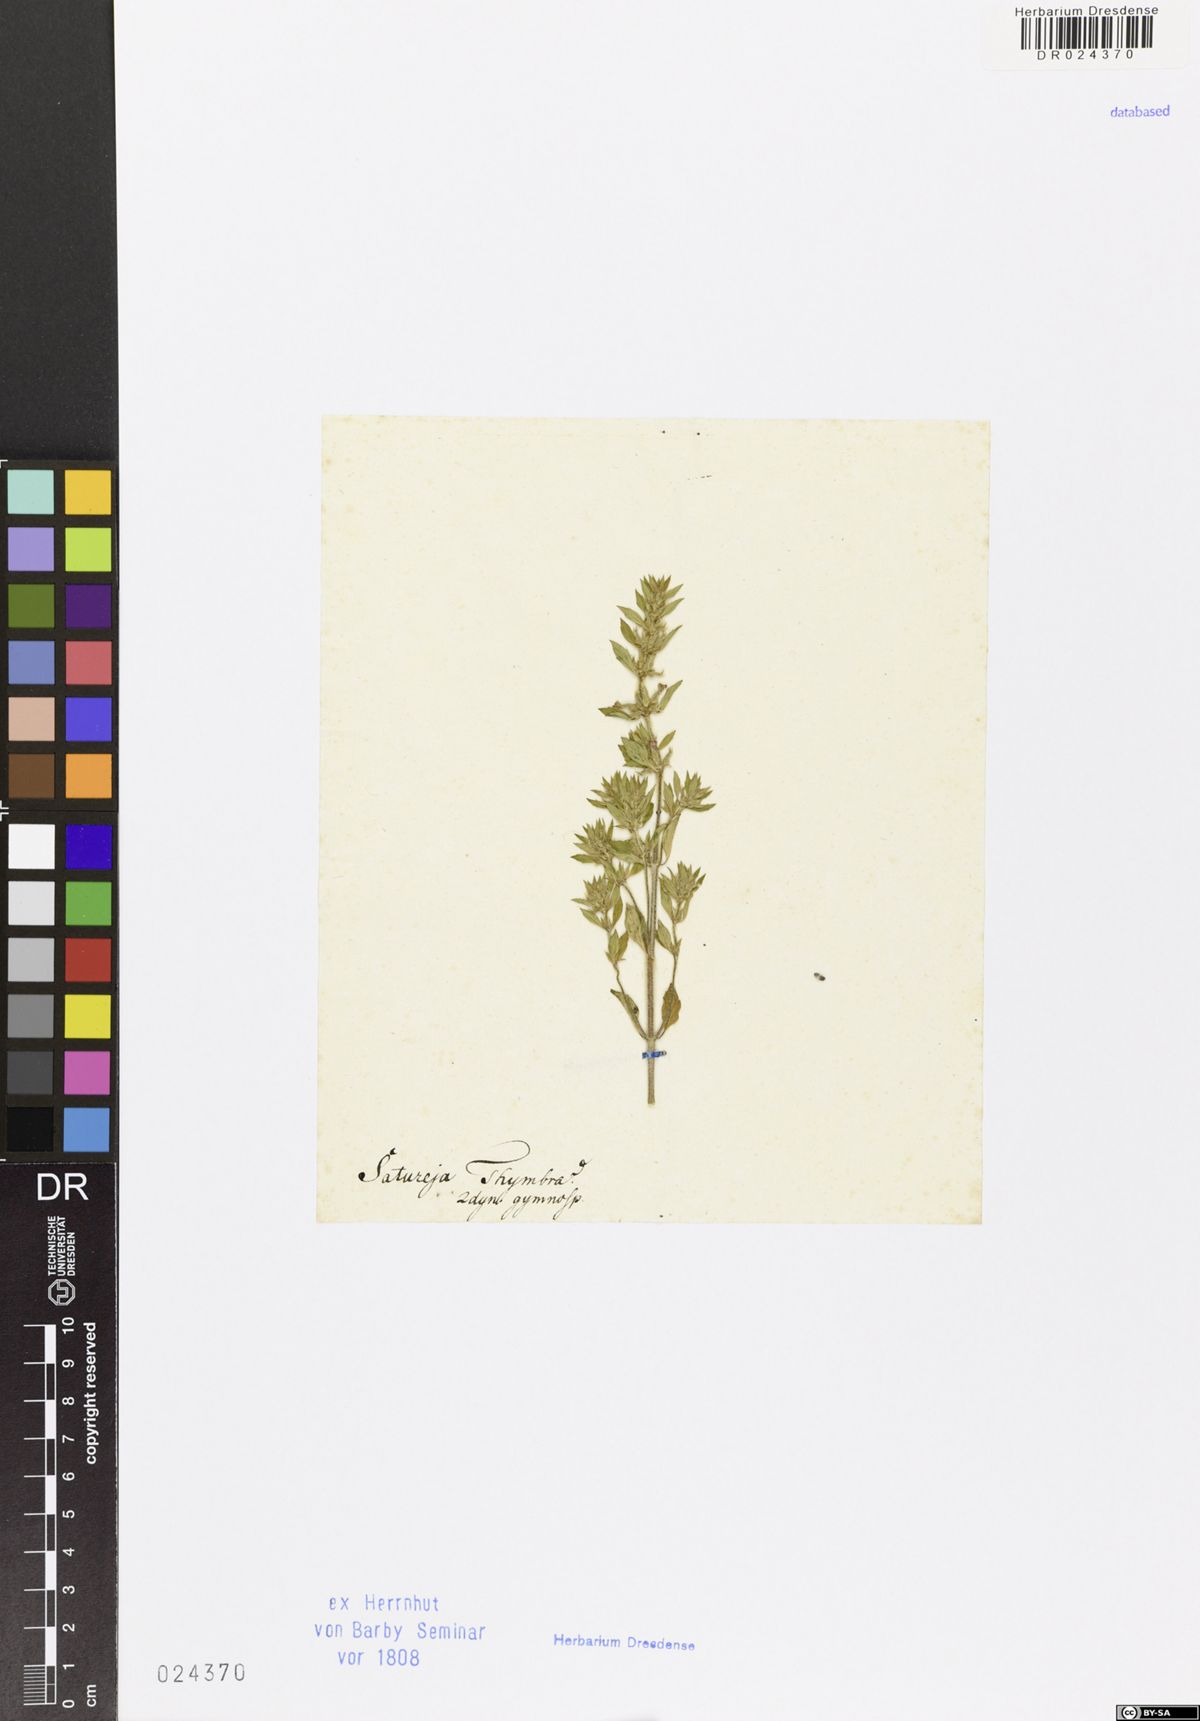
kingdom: Plantae
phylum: Tracheophyta
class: Magnoliopsida
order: Lamiales
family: Lamiaceae
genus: Satureja
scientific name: Satureja thymbra
